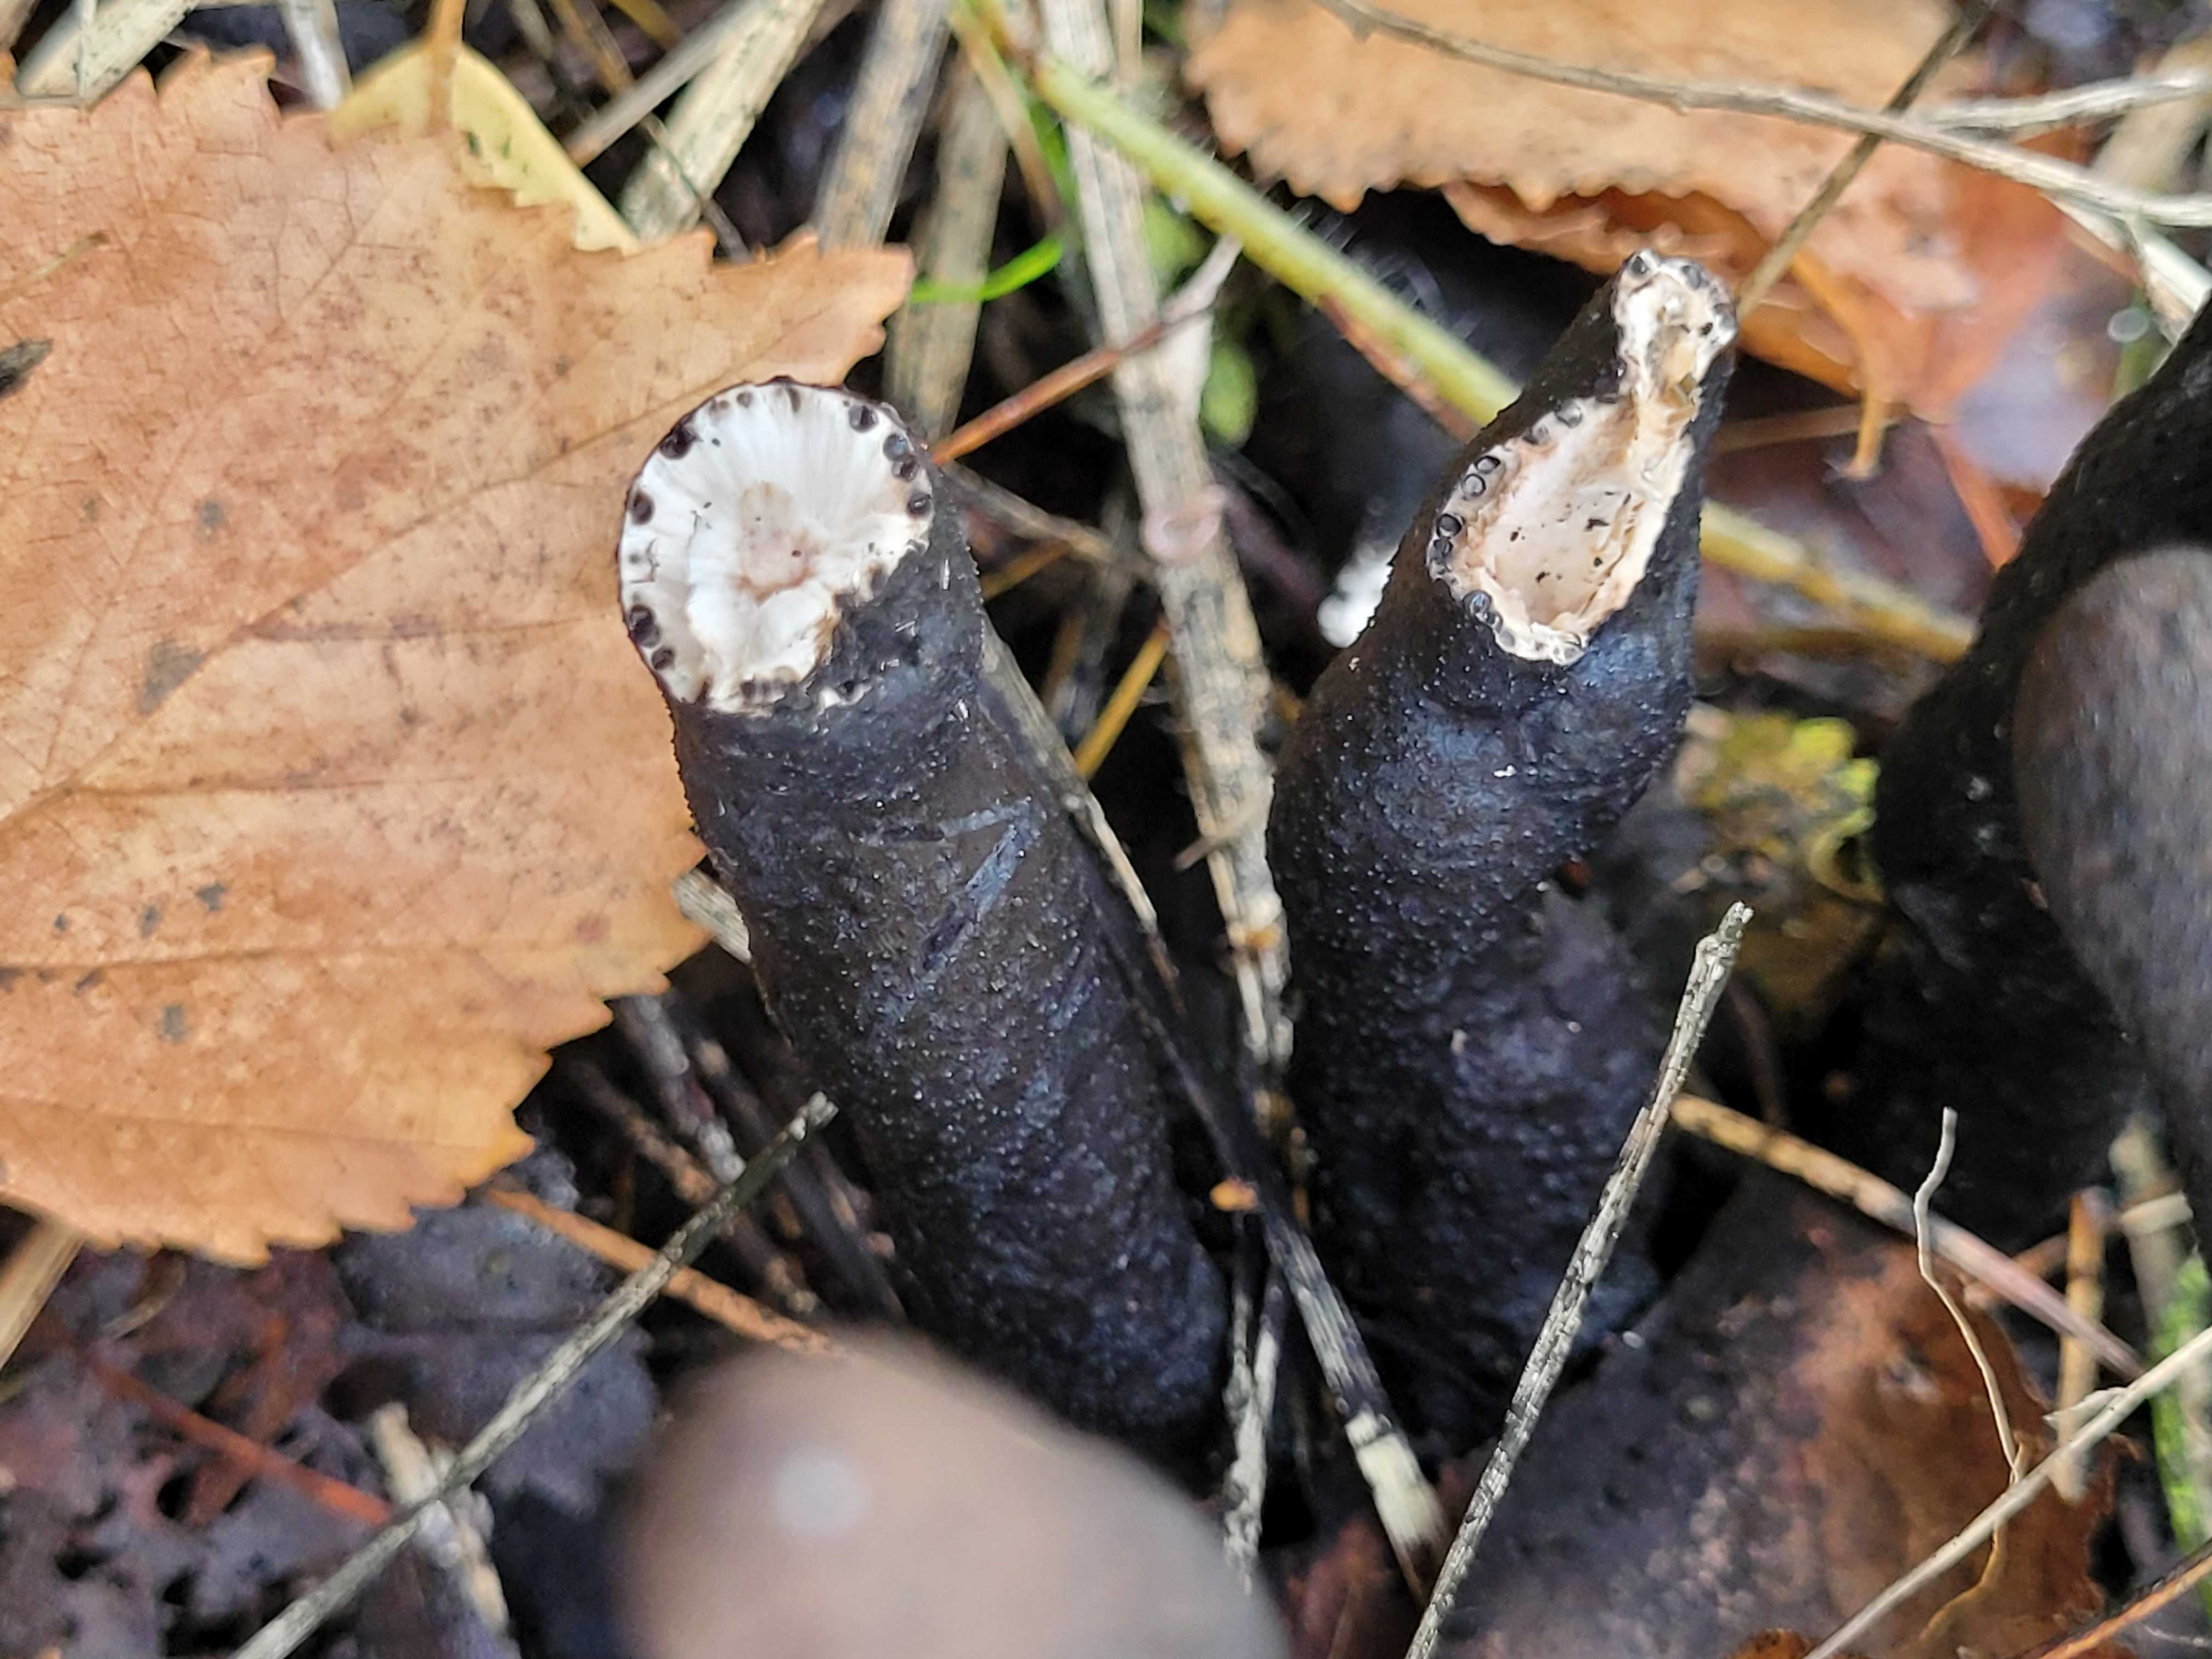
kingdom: Fungi
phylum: Ascomycota
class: Sordariomycetes
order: Xylariales
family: Xylariaceae
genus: Xylaria
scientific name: Xylaria polymorpha
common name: kølle-stødsvamp
